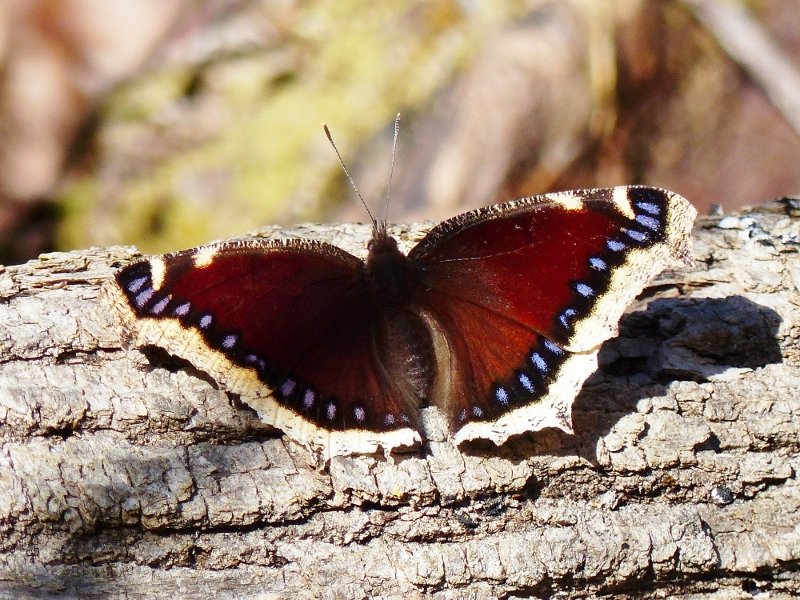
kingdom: Animalia
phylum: Arthropoda
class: Insecta
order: Lepidoptera
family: Nymphalidae
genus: Nymphalis
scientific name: Nymphalis antiopa
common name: Mourning Cloak
